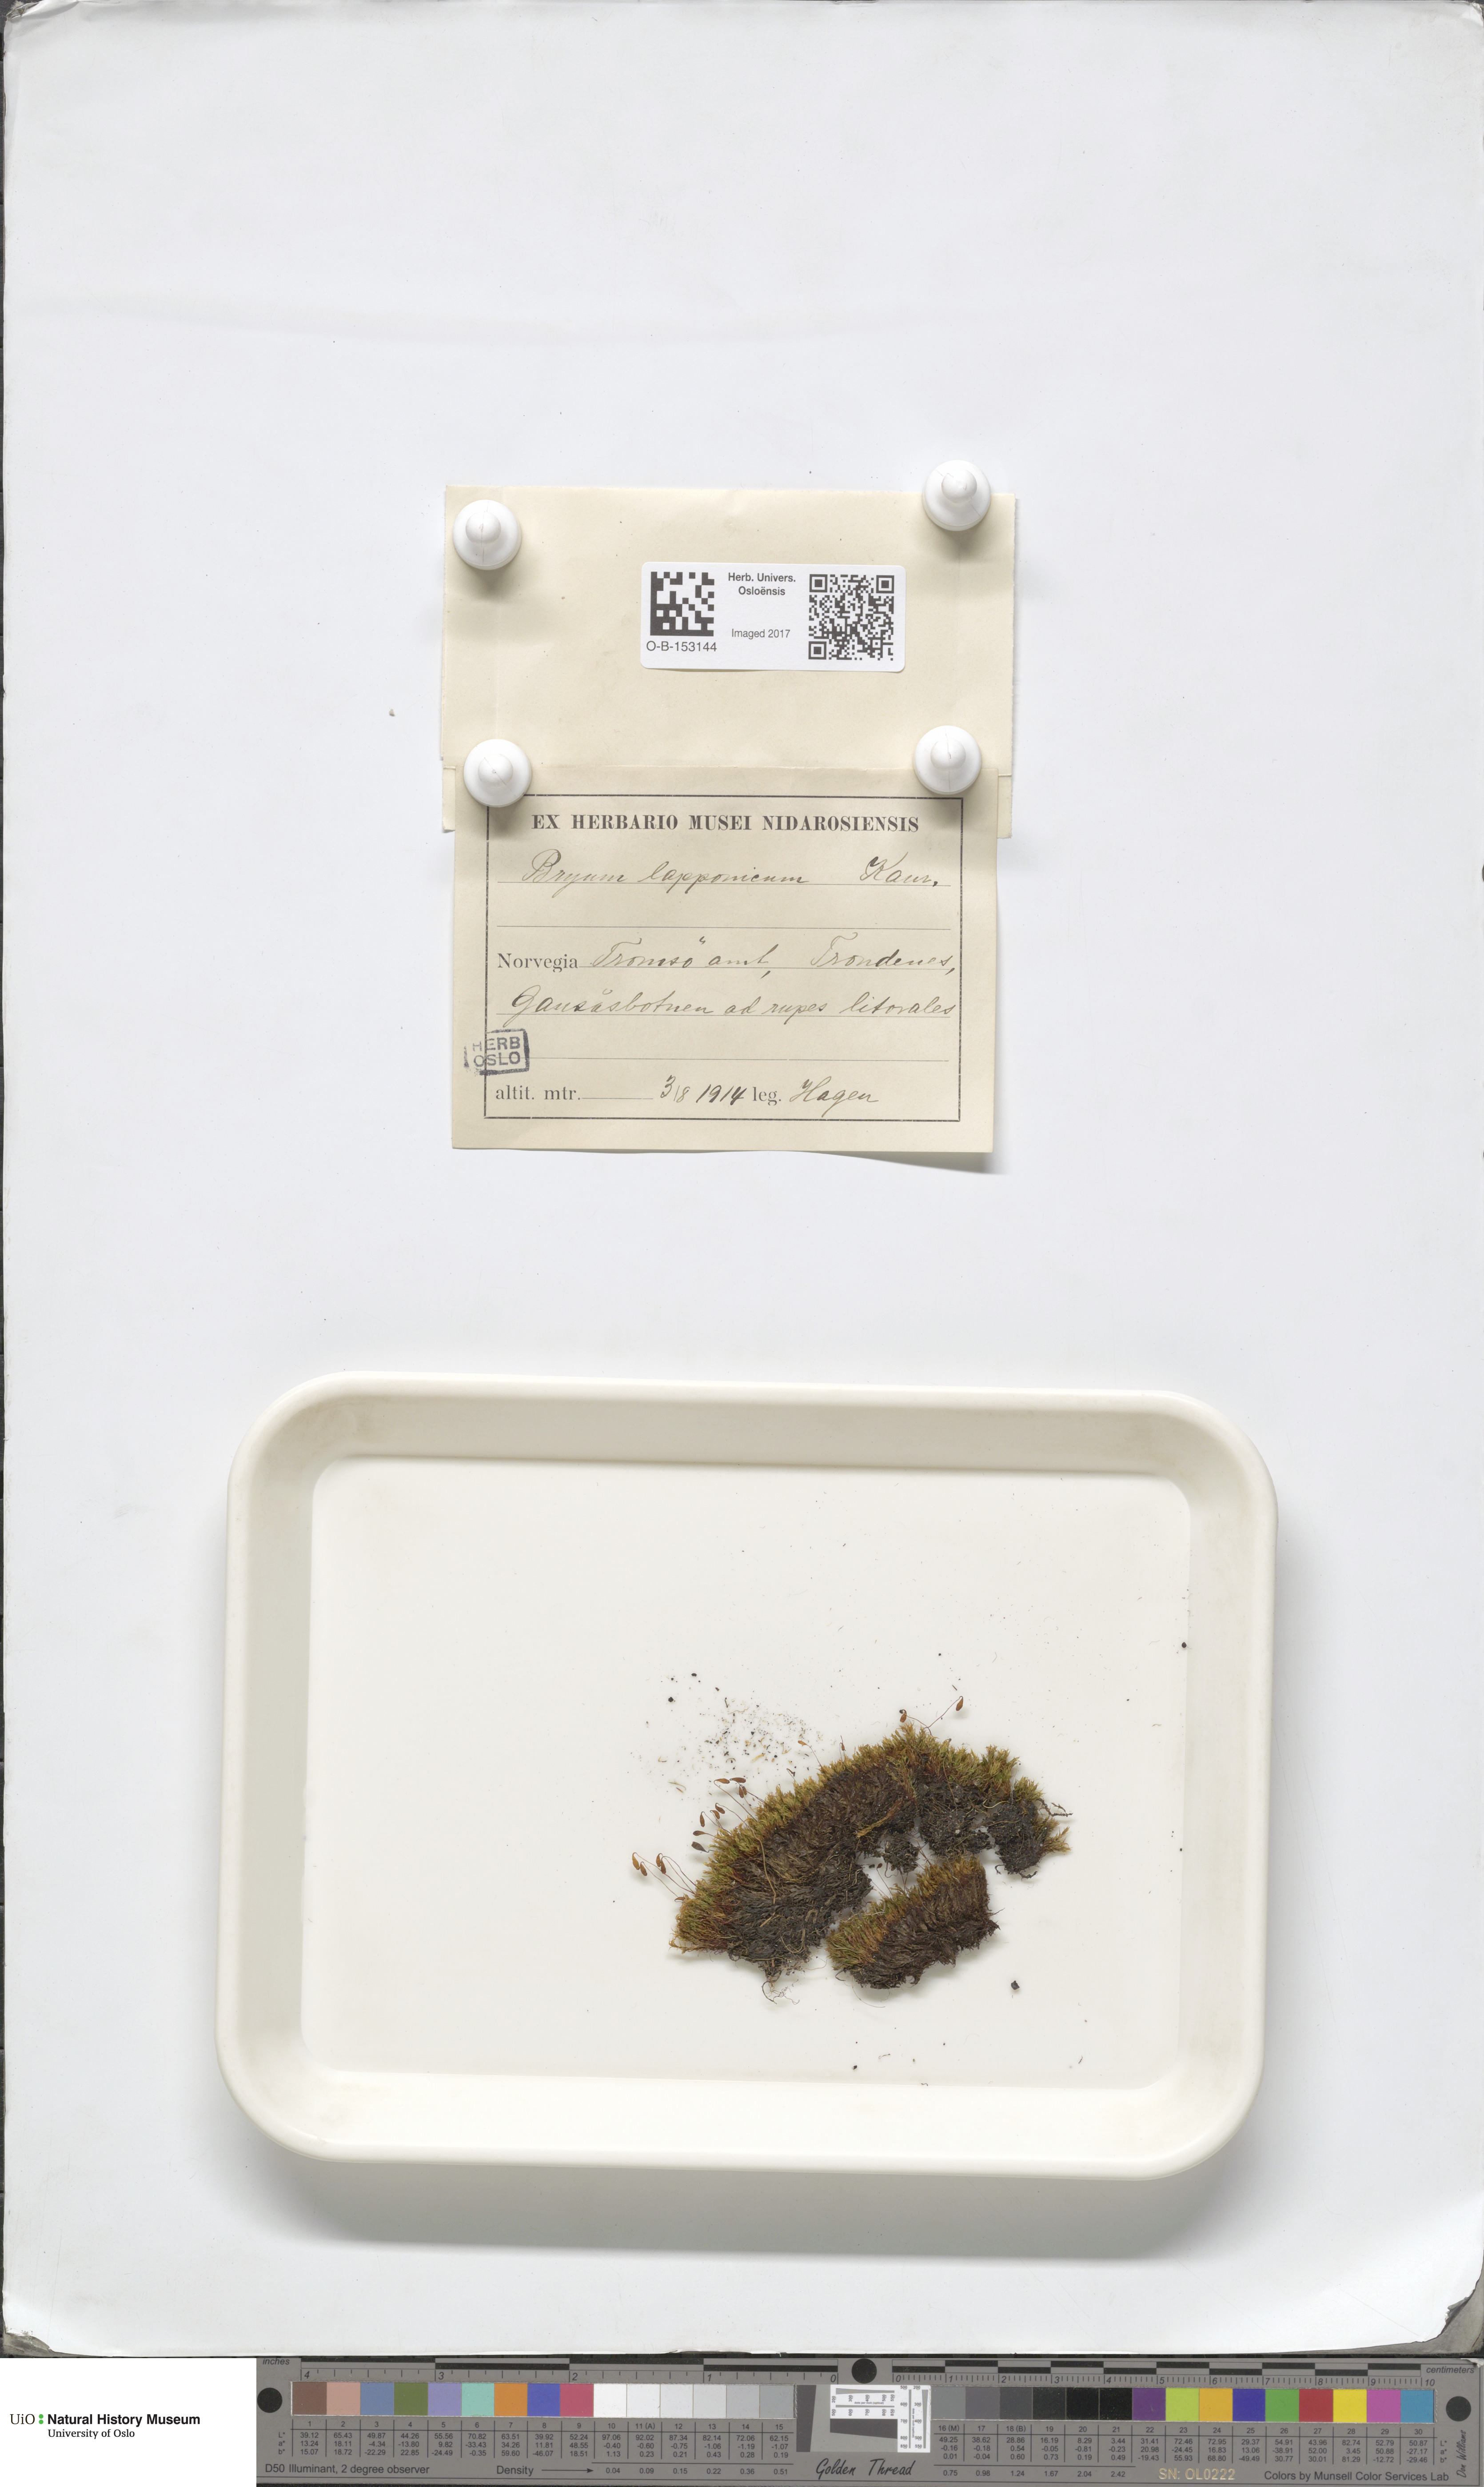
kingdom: Plantae
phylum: Bryophyta
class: Bryopsida
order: Bryales
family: Bryaceae
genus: Ptychostomum
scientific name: Ptychostomum inclinatum
